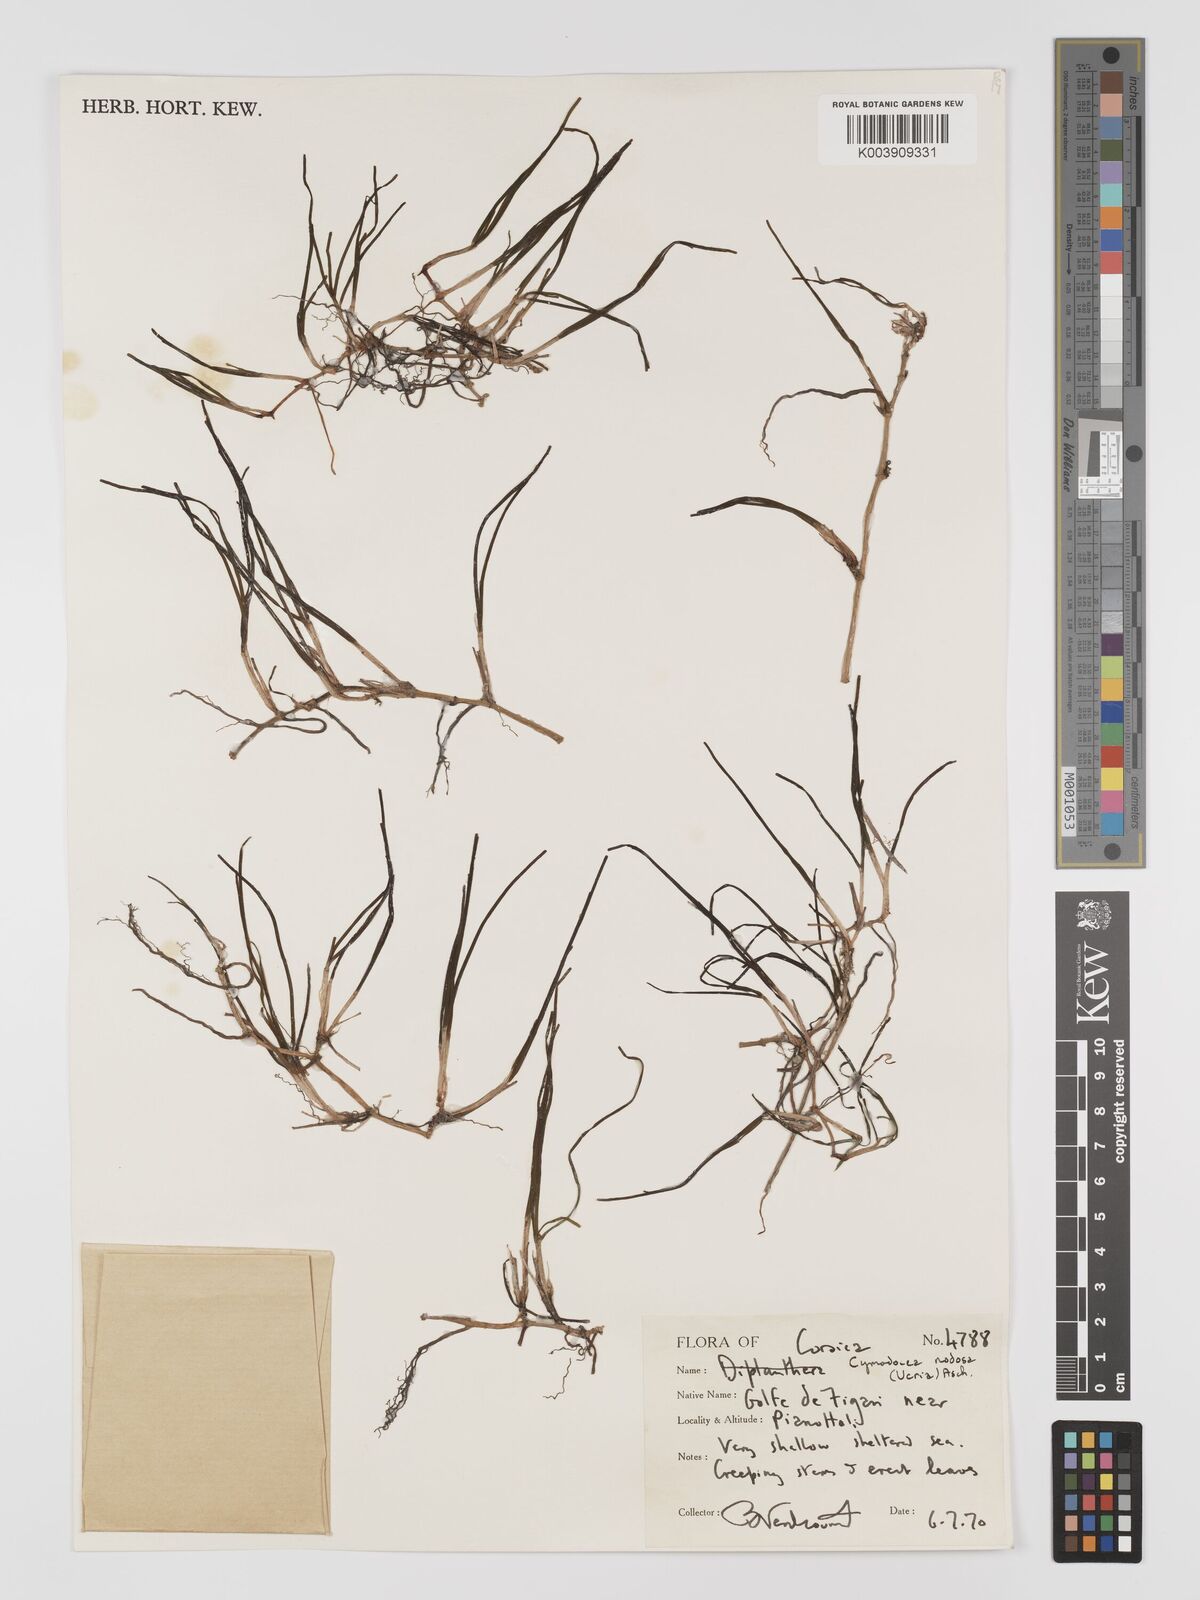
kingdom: Plantae
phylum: Tracheophyta
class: Liliopsida
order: Alismatales
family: Cymodoceaceae
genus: Cymodocea
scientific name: Cymodocea nodosa
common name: Slender seagrass
